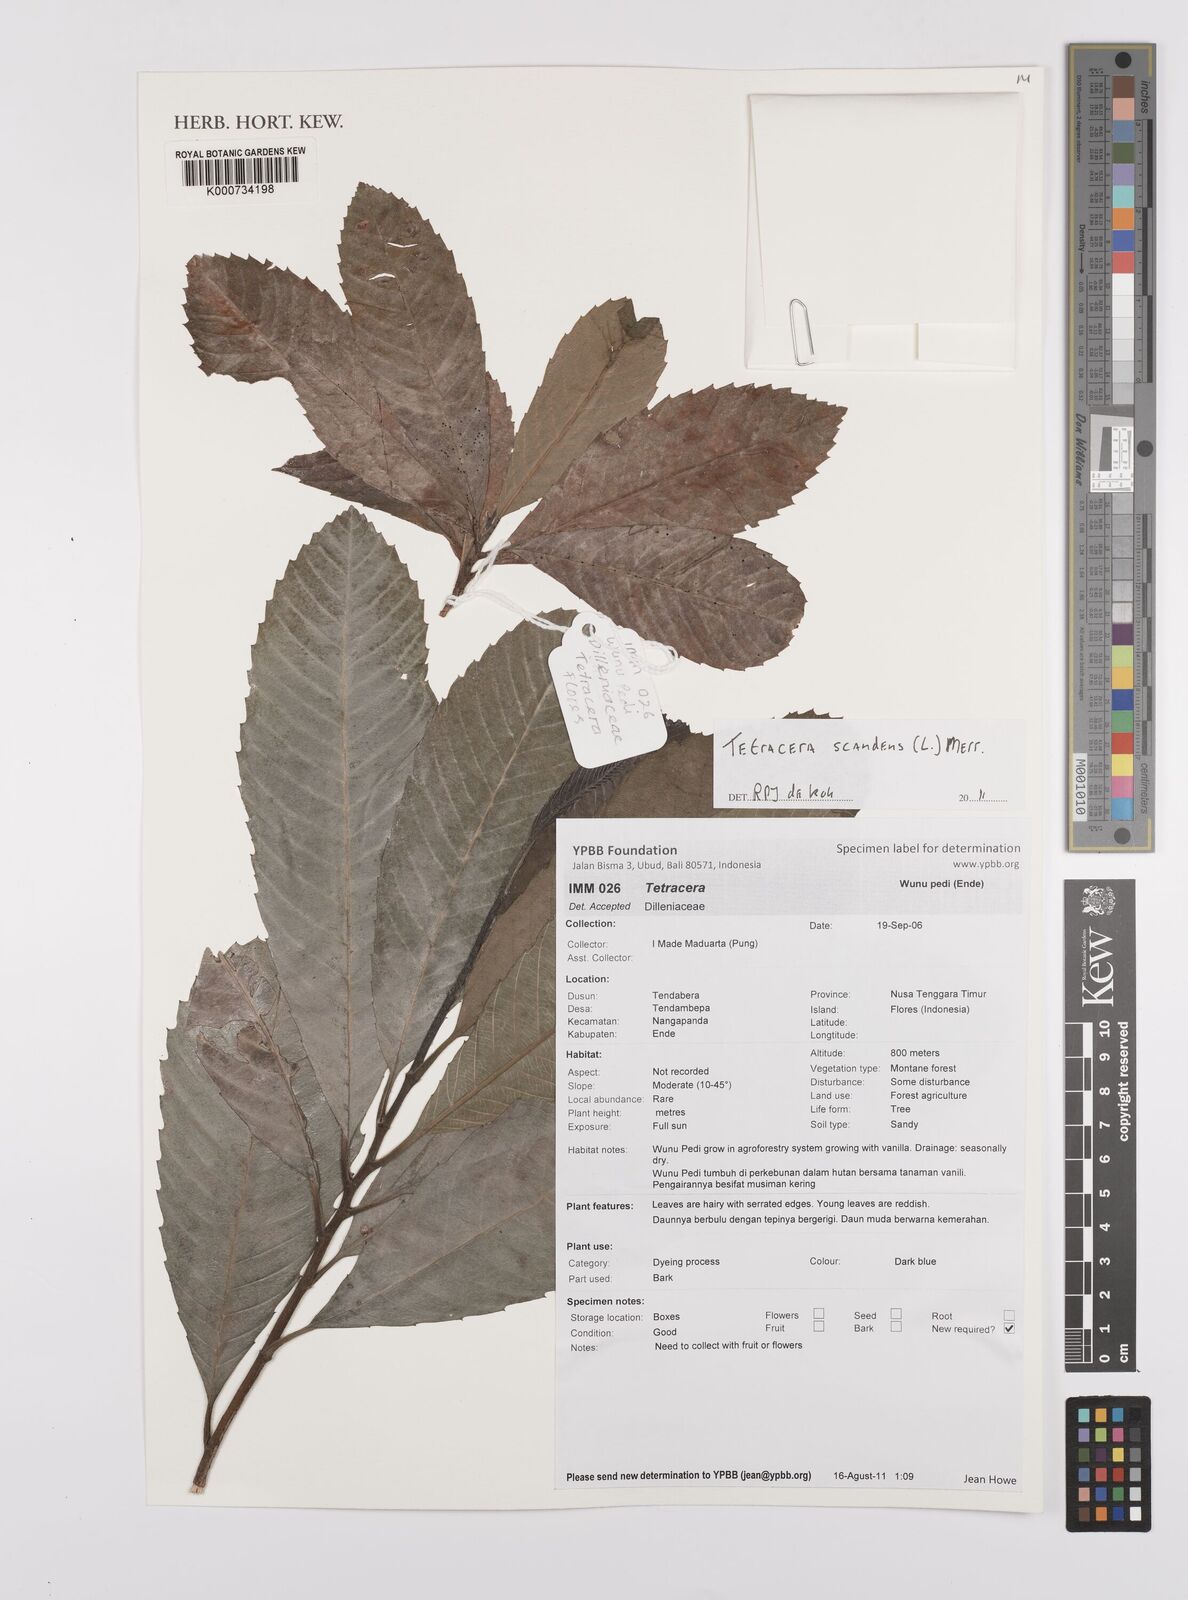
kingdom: Plantae
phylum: Tracheophyta
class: Magnoliopsida
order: Dilleniales
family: Dilleniaceae
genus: Tetracera
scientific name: Tetracera scandens
